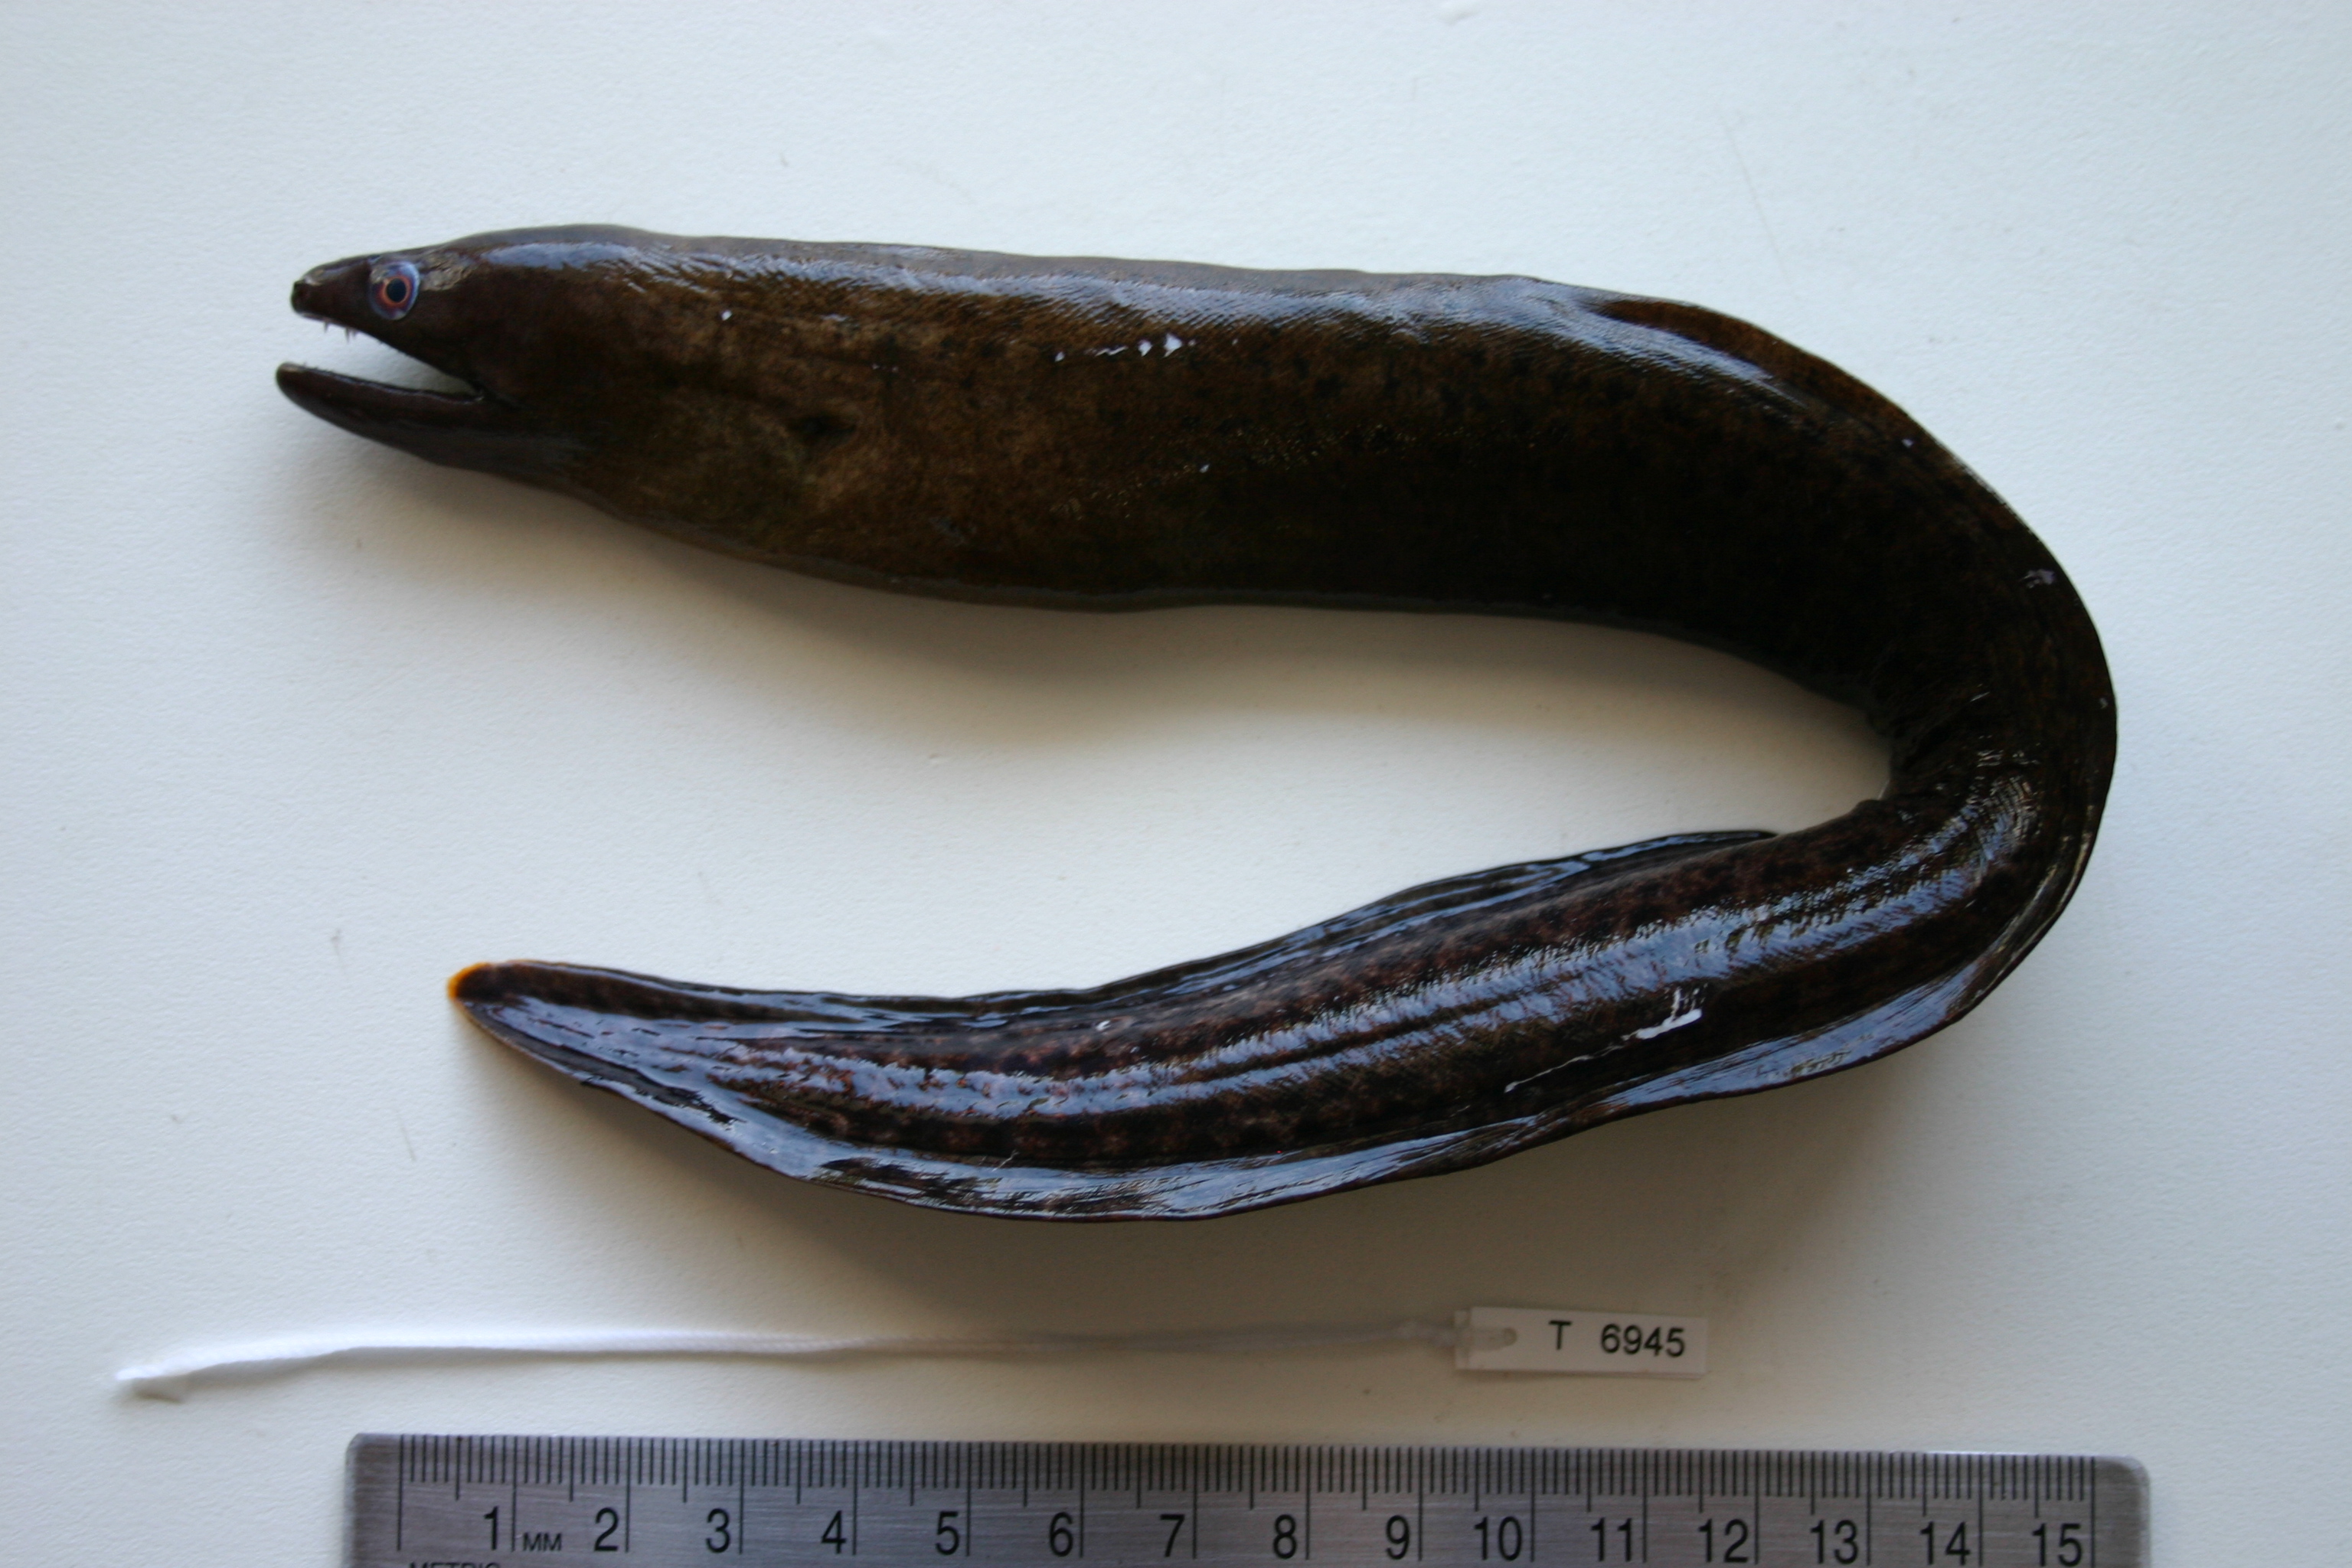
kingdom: Animalia
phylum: Chordata
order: Anguilliformes
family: Muraenidae
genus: Gymnothorax
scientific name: Gymnothorax buroensis
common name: Latticetail moray
